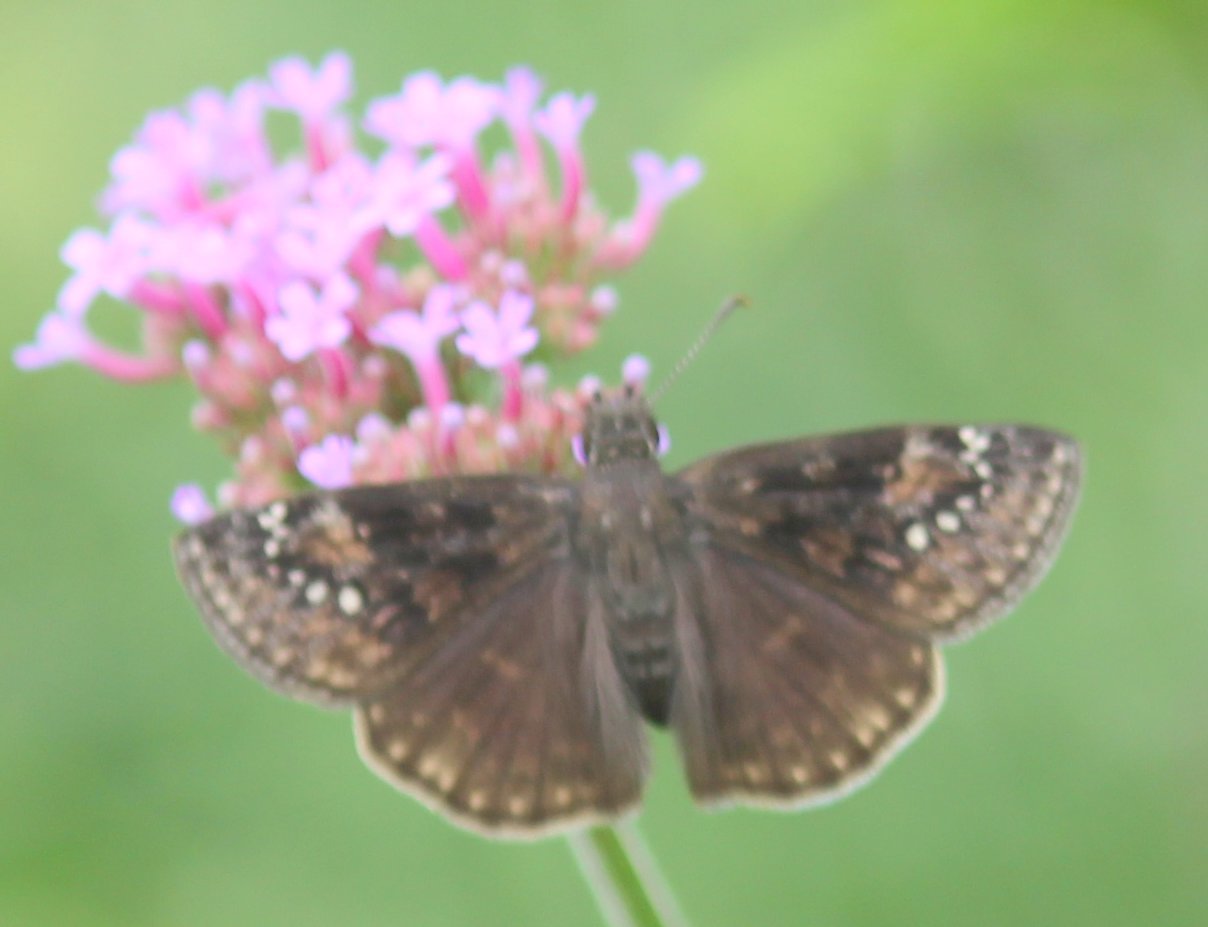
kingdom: Animalia
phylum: Arthropoda
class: Insecta
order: Lepidoptera
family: Hesperiidae
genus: Gesta
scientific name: Gesta
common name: Wild Indigo Duskywing
